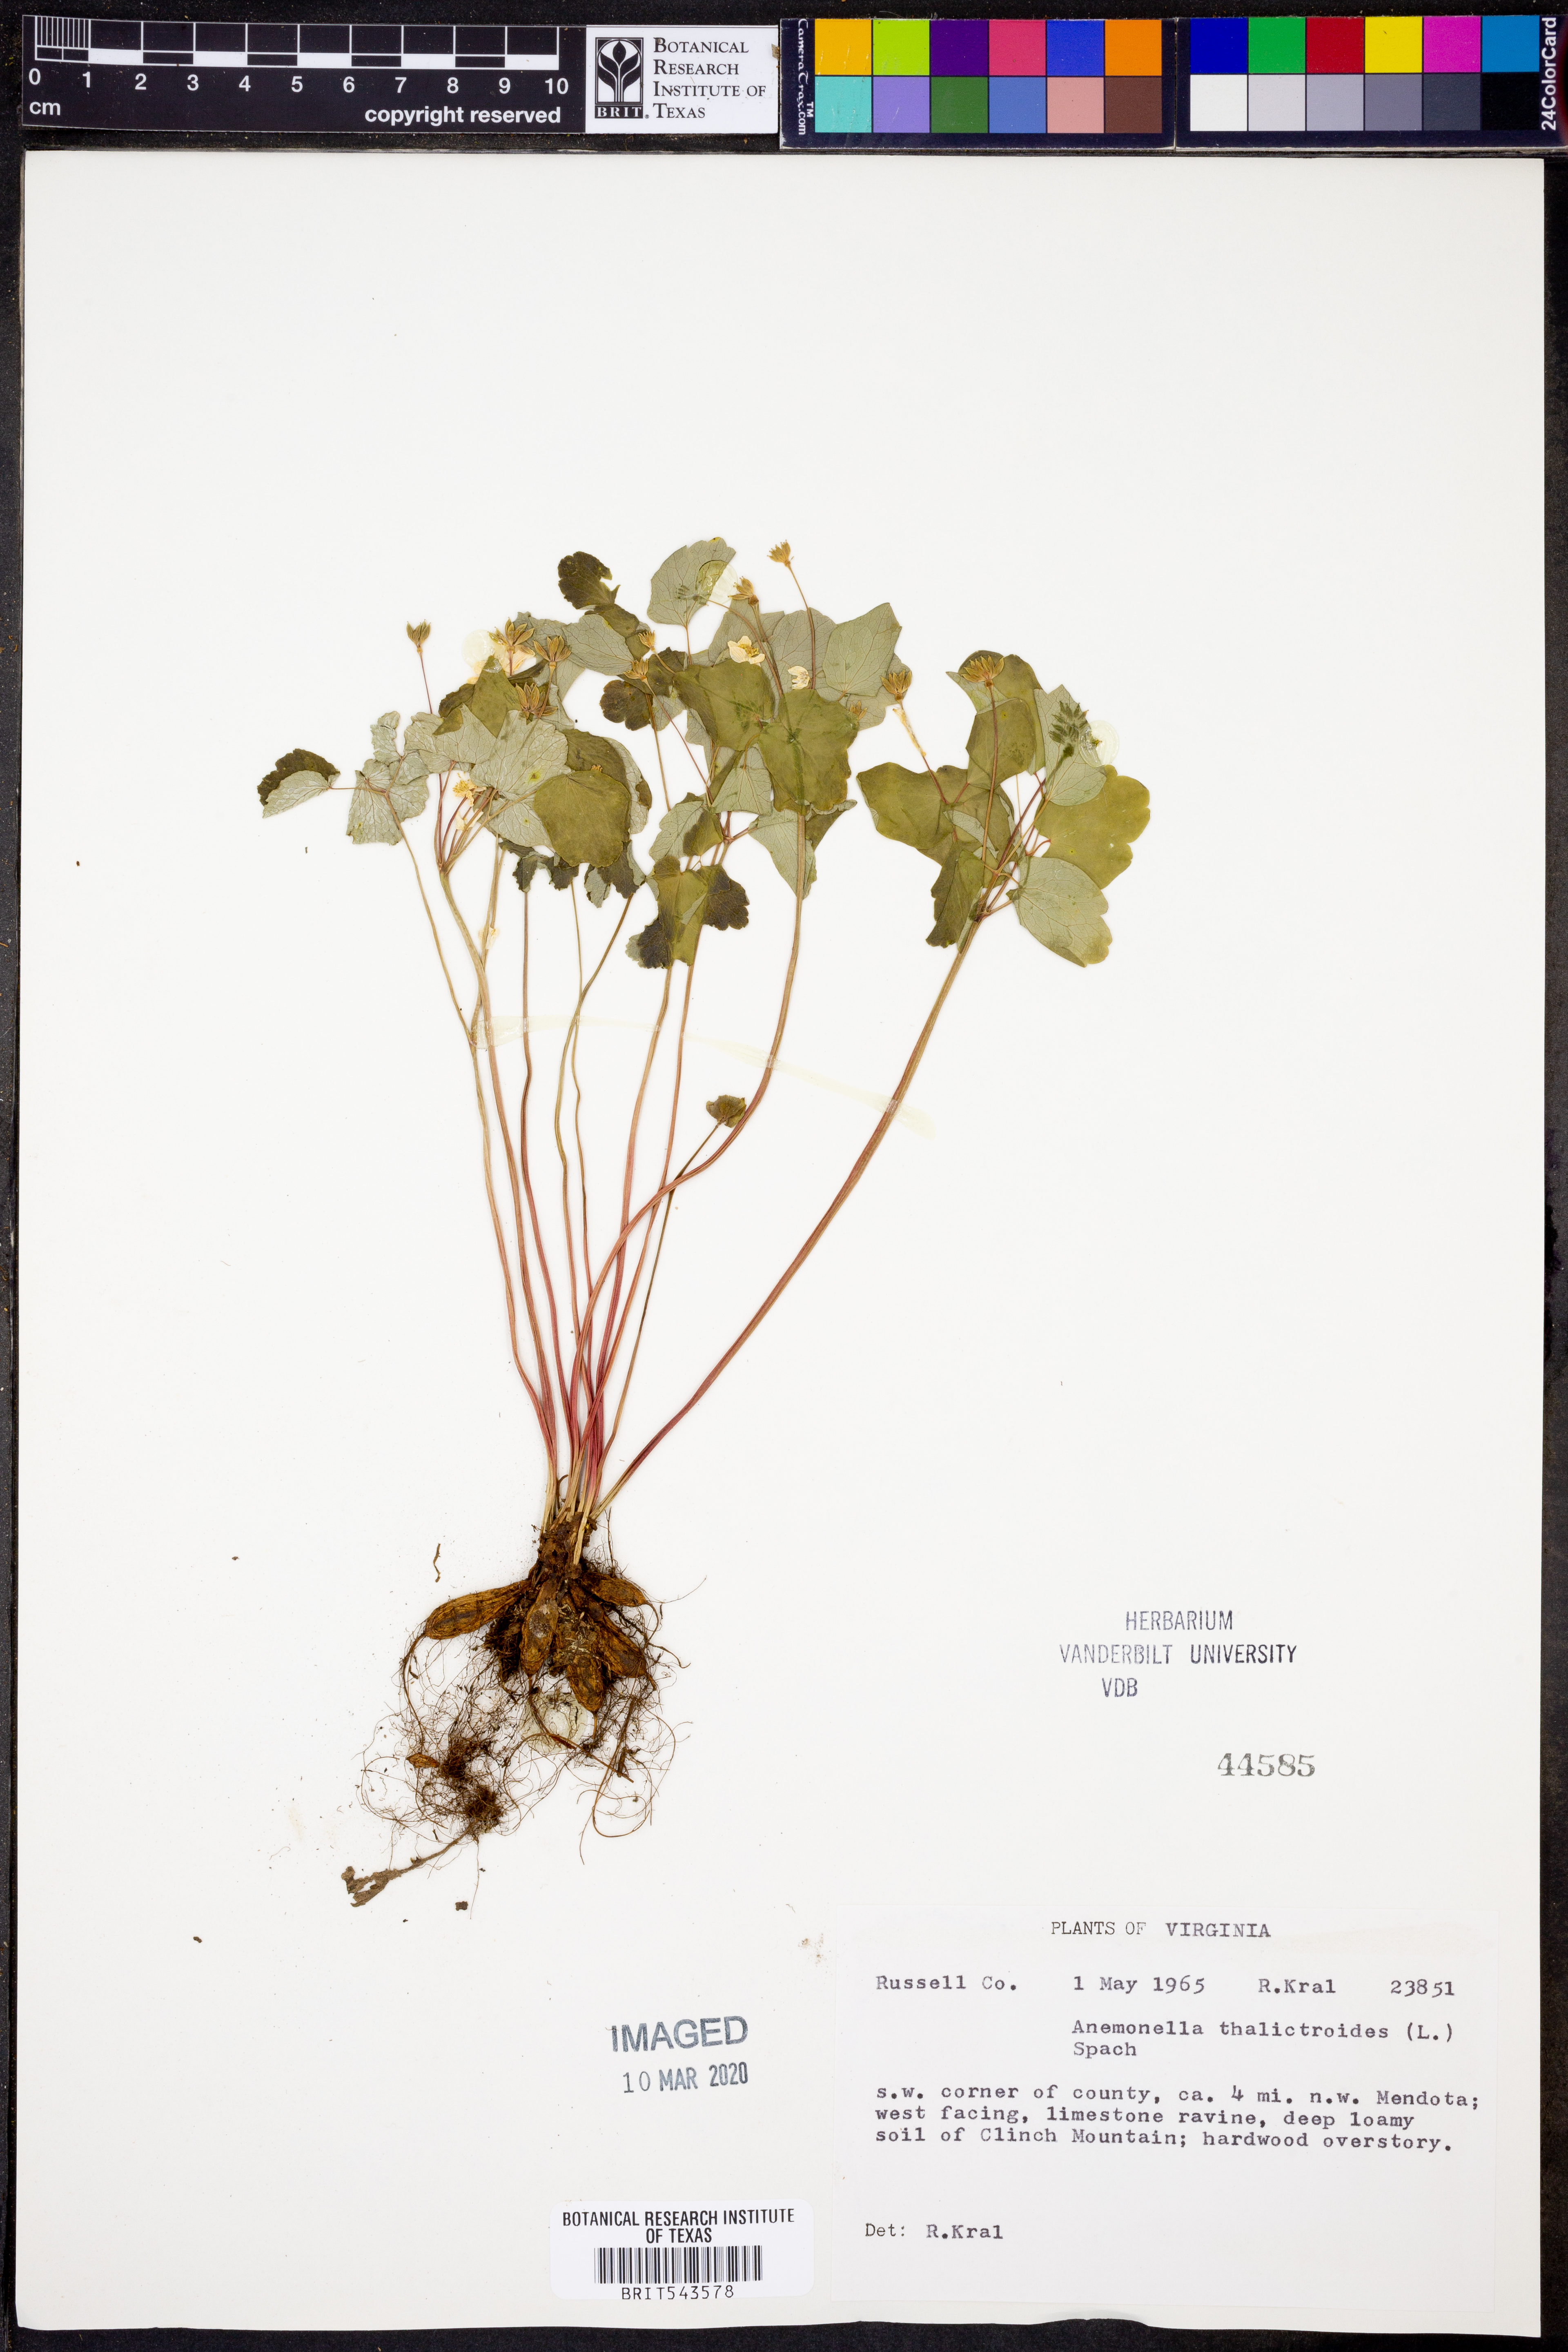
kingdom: Plantae
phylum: Tracheophyta
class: Magnoliopsida
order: Ranunculales
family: Ranunculaceae
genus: Thalictrum
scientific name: Thalictrum thalictroides
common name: Rue-anemone
